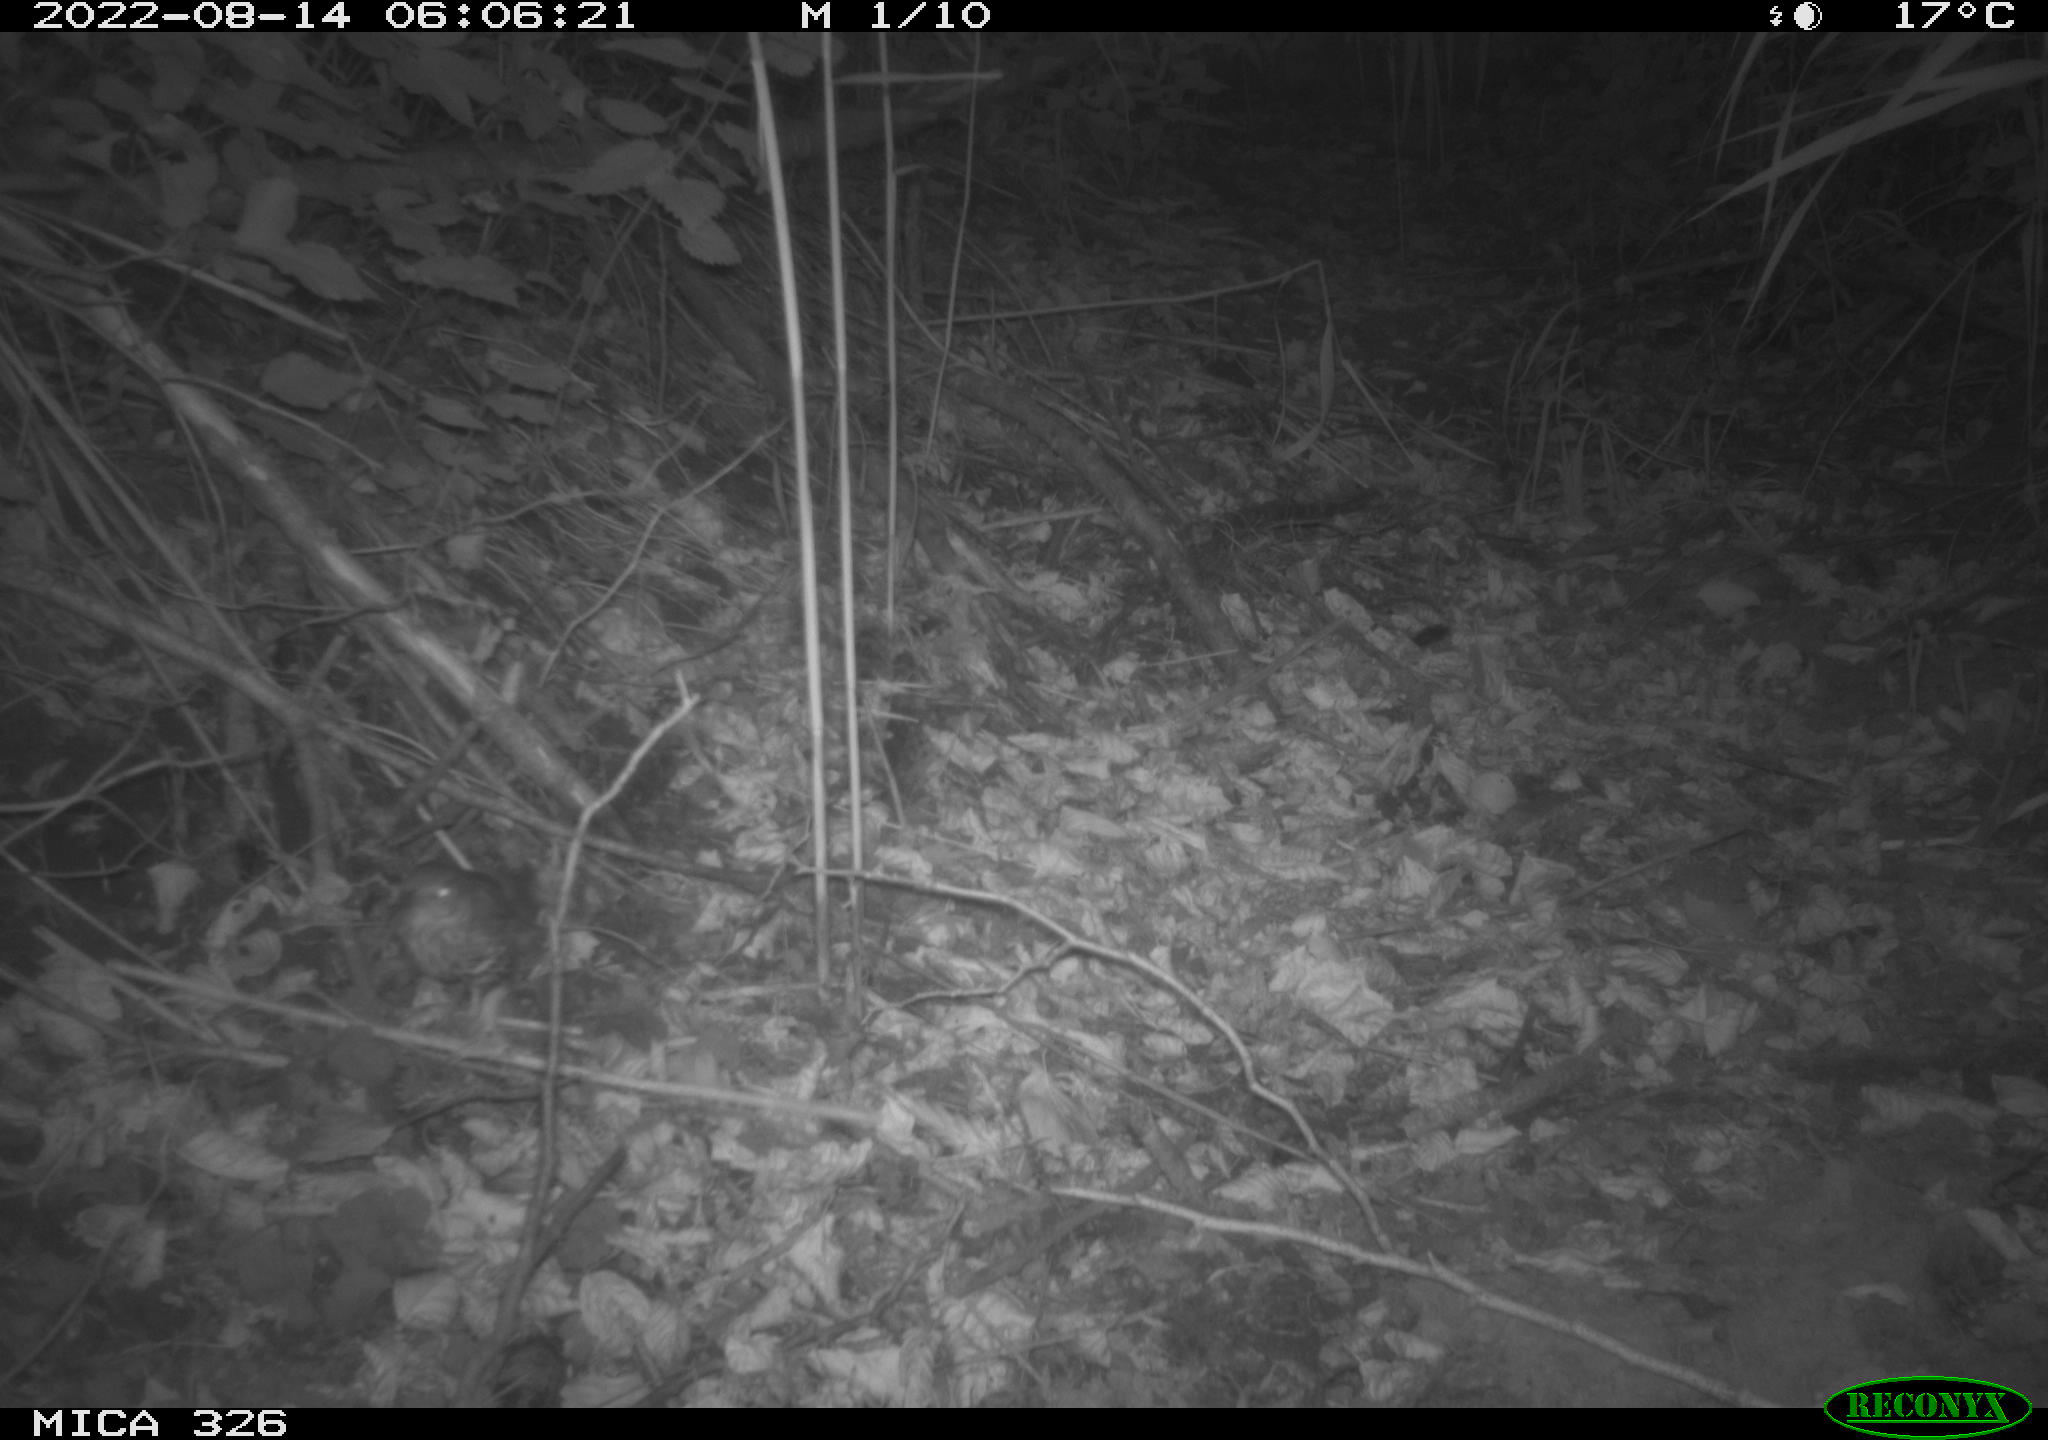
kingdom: Animalia
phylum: Chordata
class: Aves
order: Passeriformes
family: Turdidae
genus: Turdus
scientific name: Turdus merula
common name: Common blackbird
